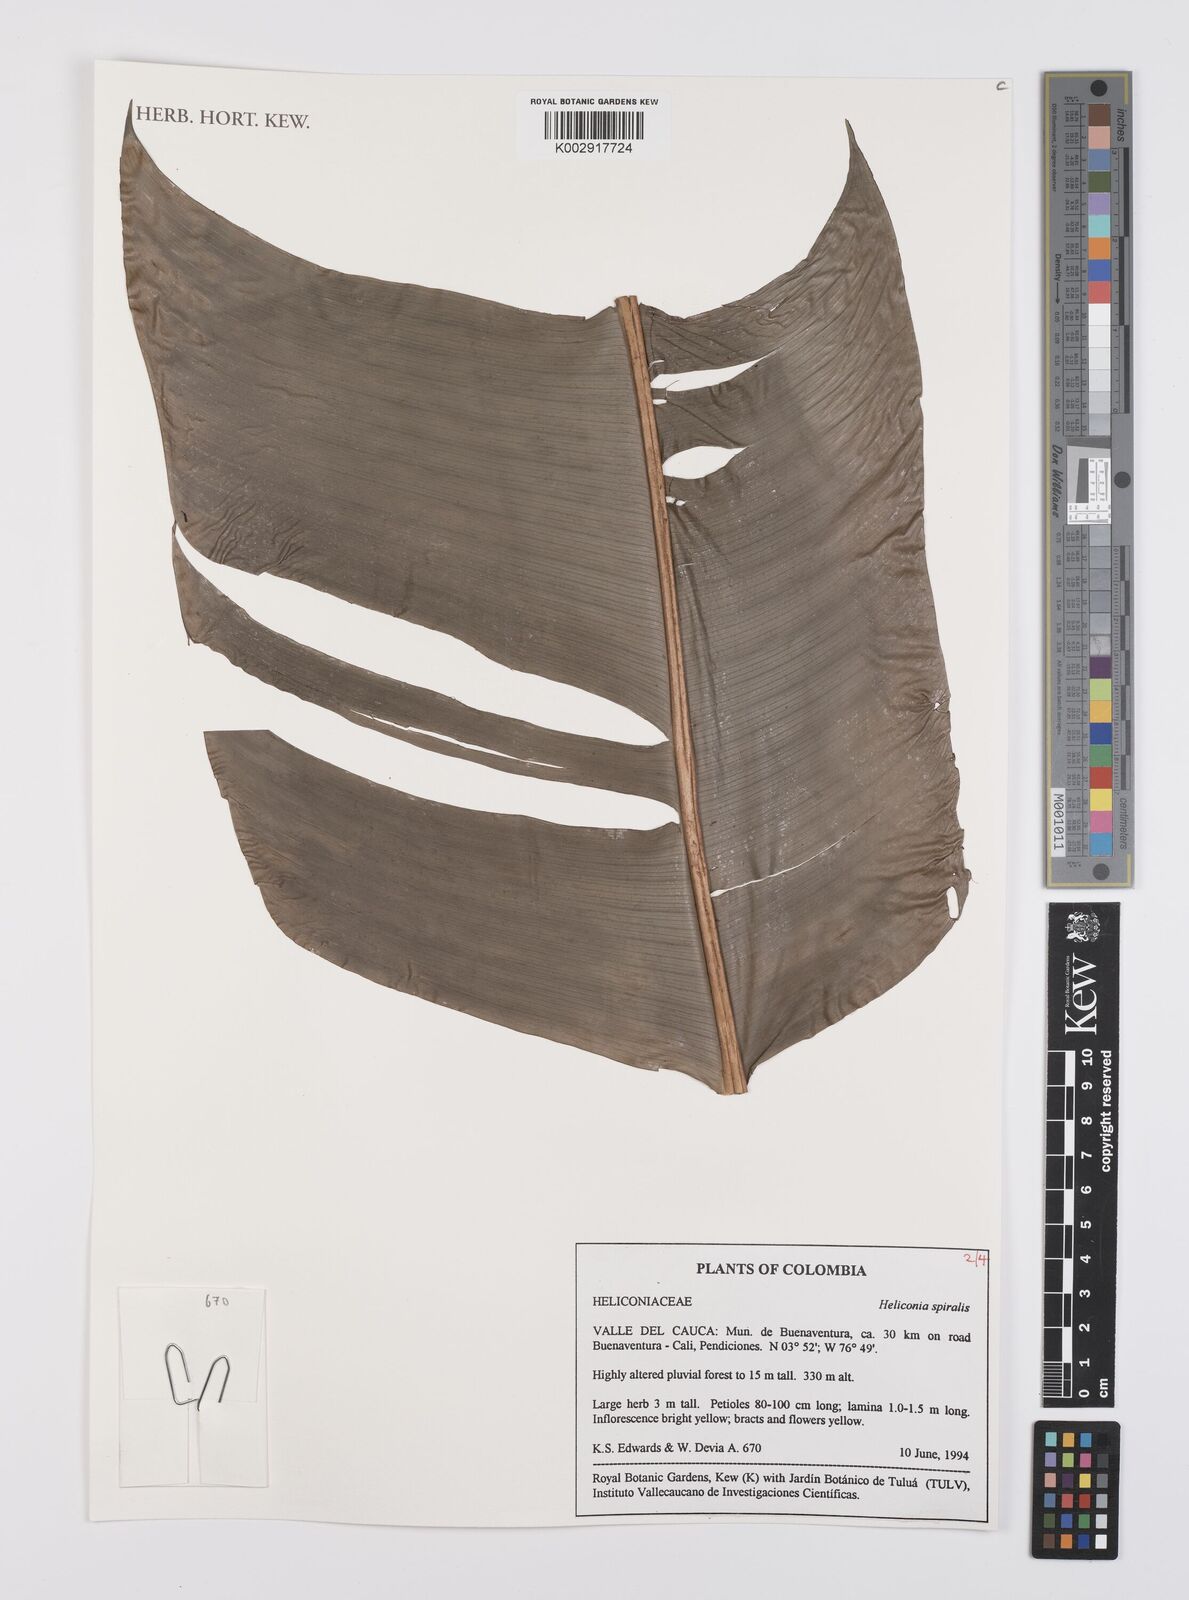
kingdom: Plantae
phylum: Tracheophyta
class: Liliopsida
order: Zingiberales
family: Heliconiaceae
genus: Heliconia
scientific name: Heliconia spiralis
